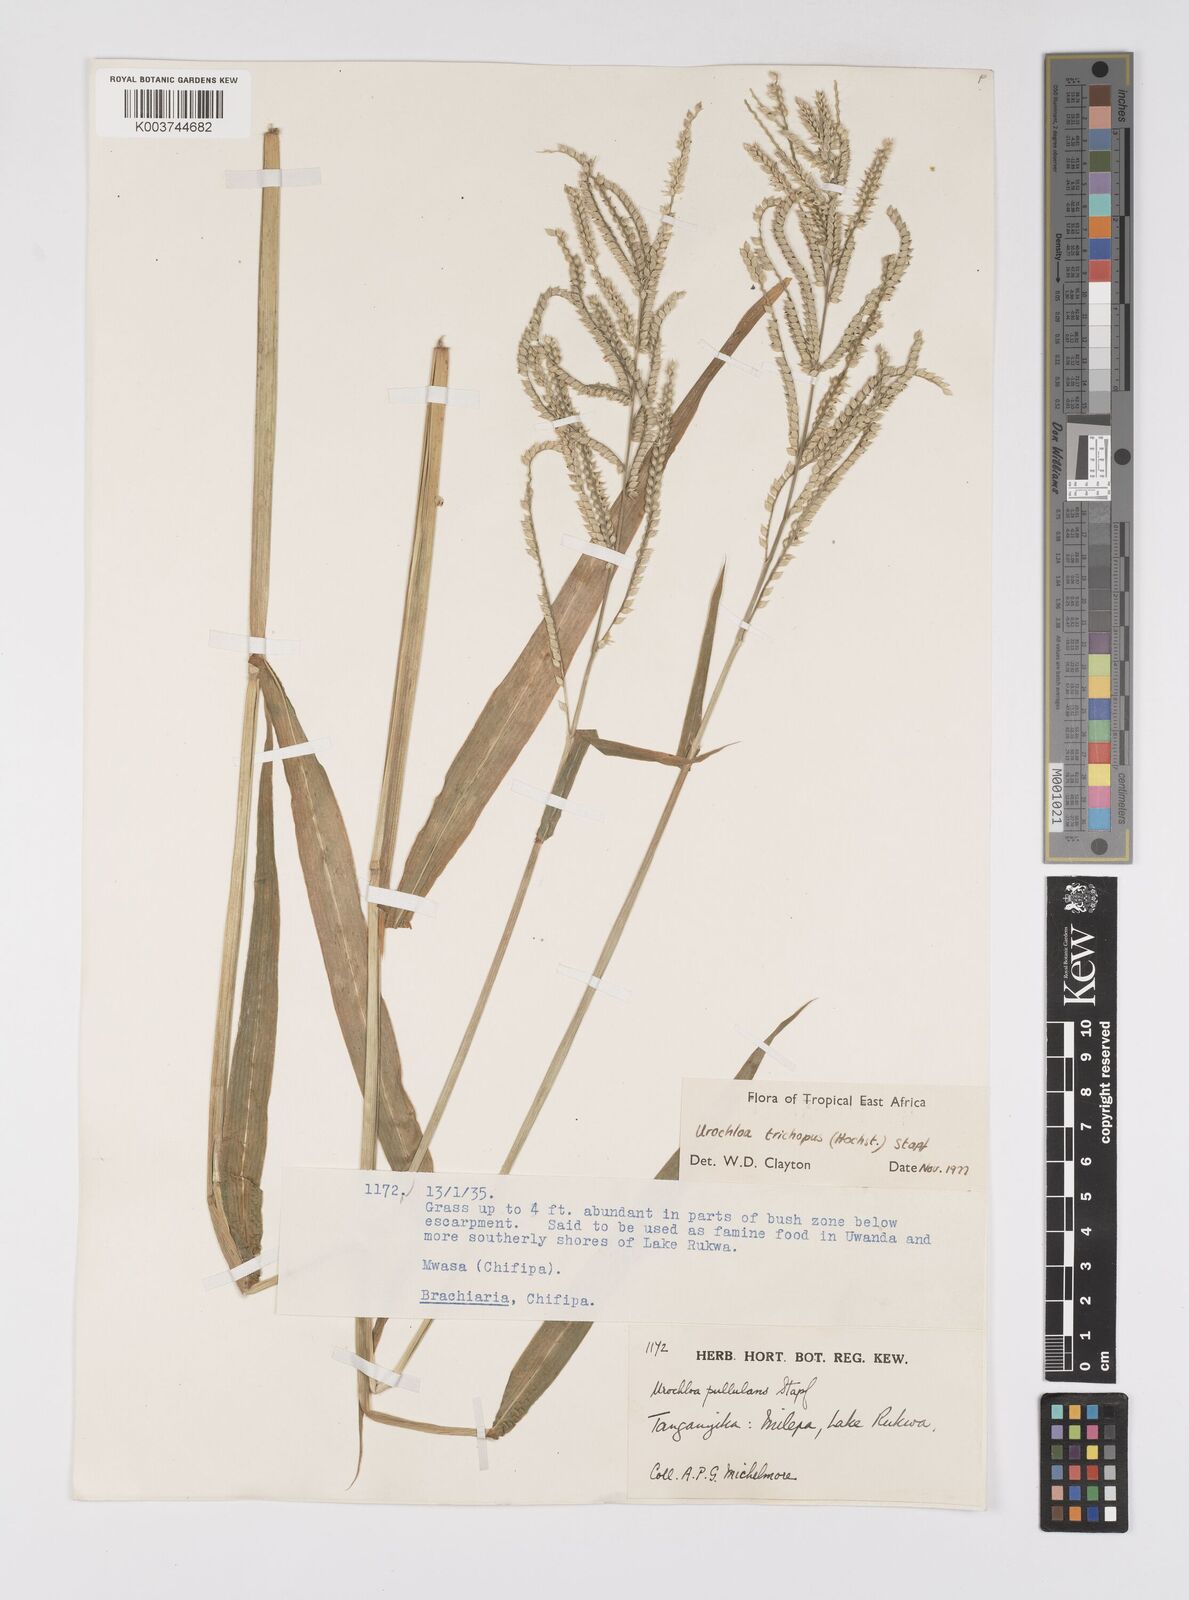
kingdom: Plantae
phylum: Tracheophyta
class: Liliopsida
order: Poales
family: Poaceae
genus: Urochloa
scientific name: Urochloa trichopus
